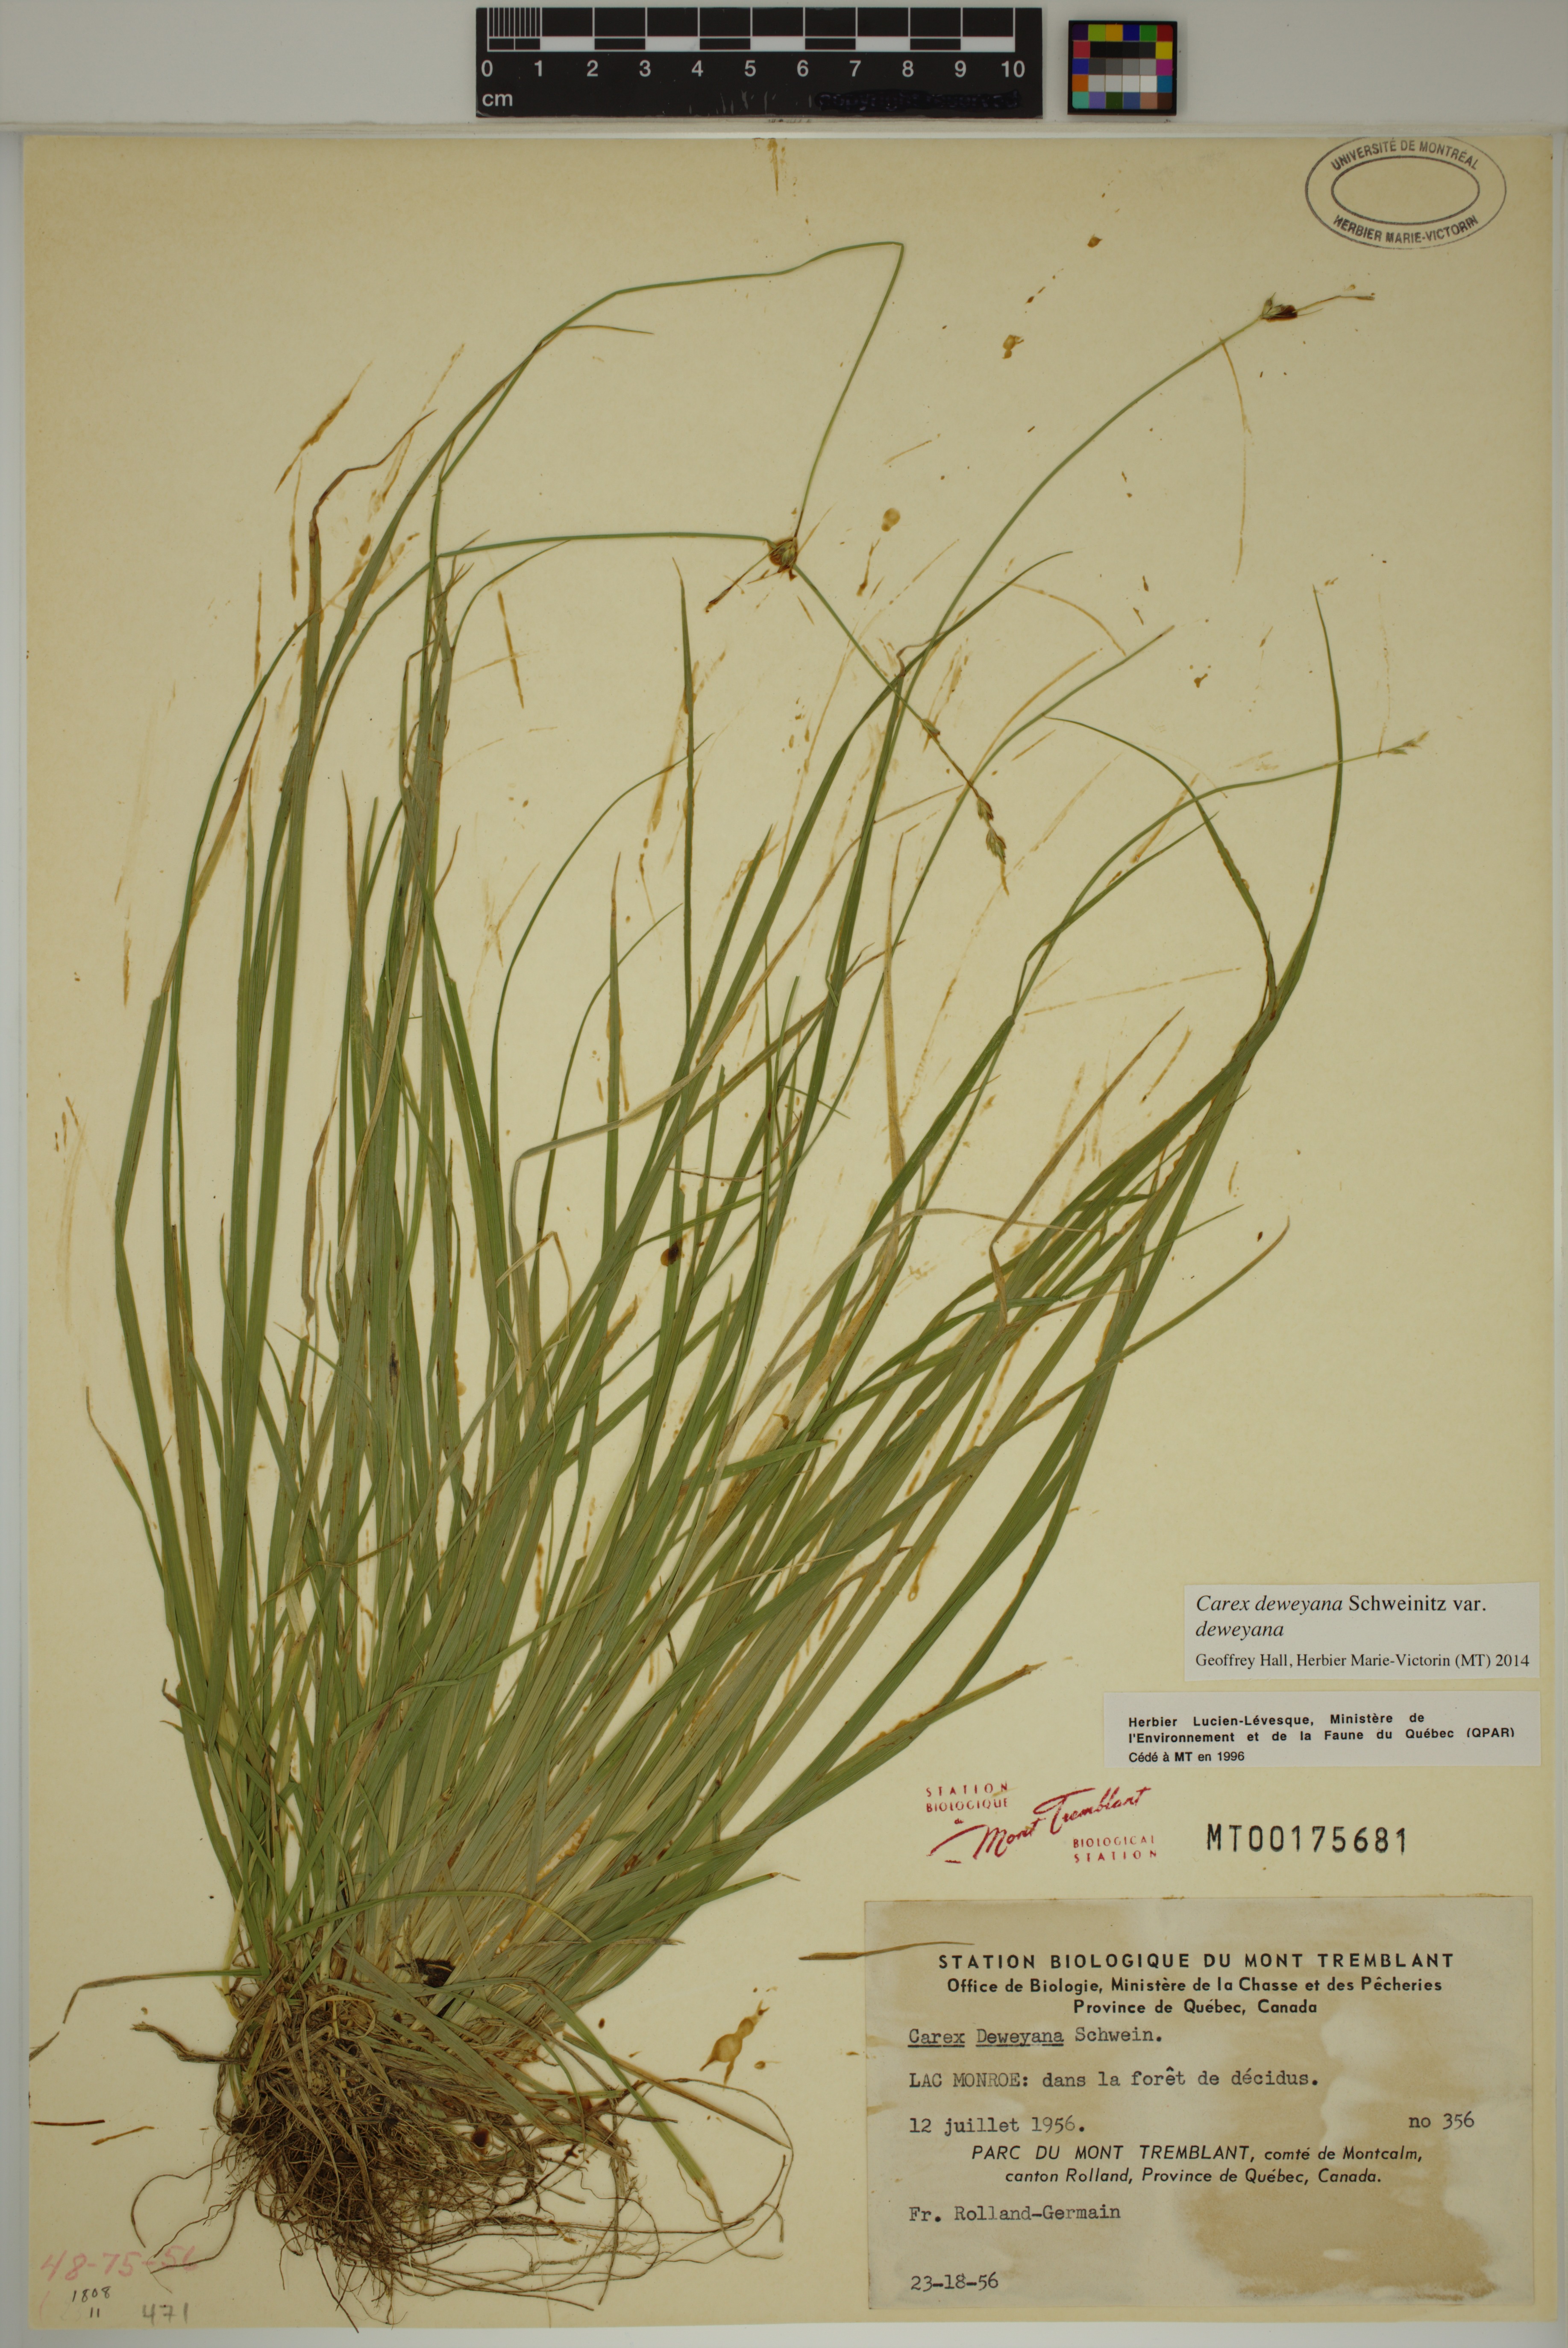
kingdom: Plantae
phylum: Tracheophyta
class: Liliopsida
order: Poales
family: Cyperaceae
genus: Carex
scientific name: Carex deweyana
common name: Dewey's sedge
